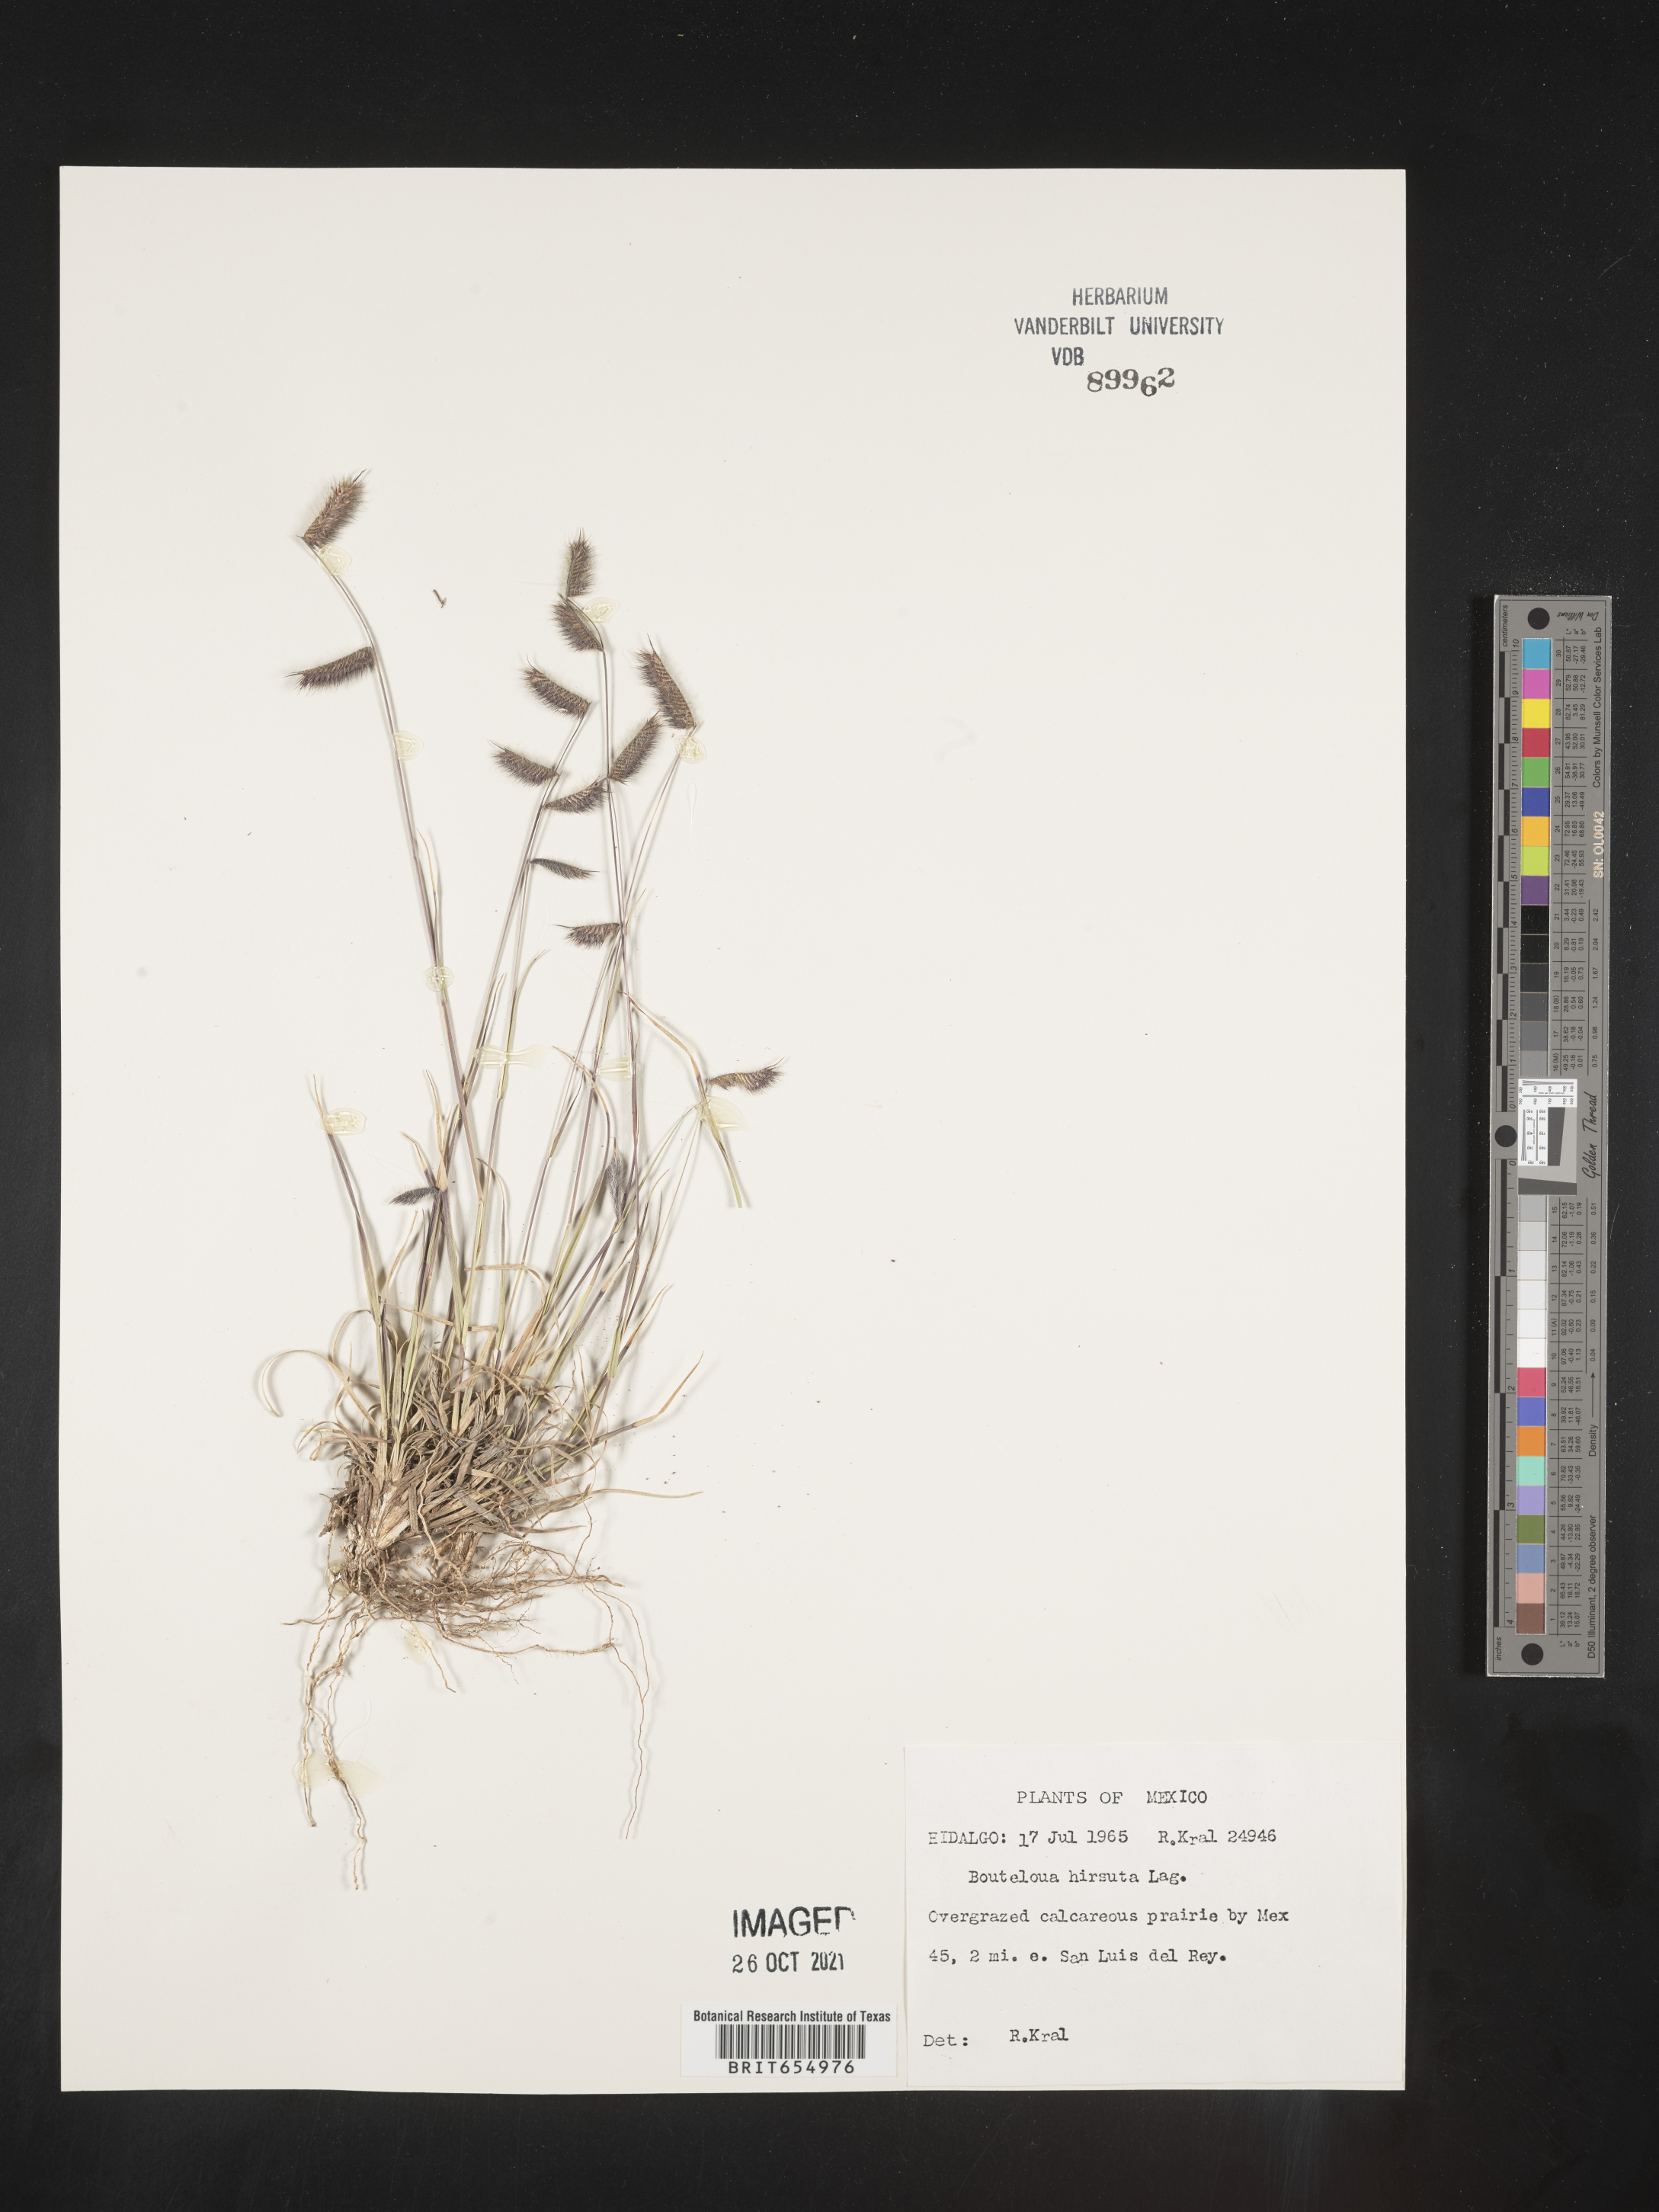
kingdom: Plantae
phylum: Tracheophyta
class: Liliopsida
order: Poales
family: Poaceae
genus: Bouteloua
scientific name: Bouteloua
